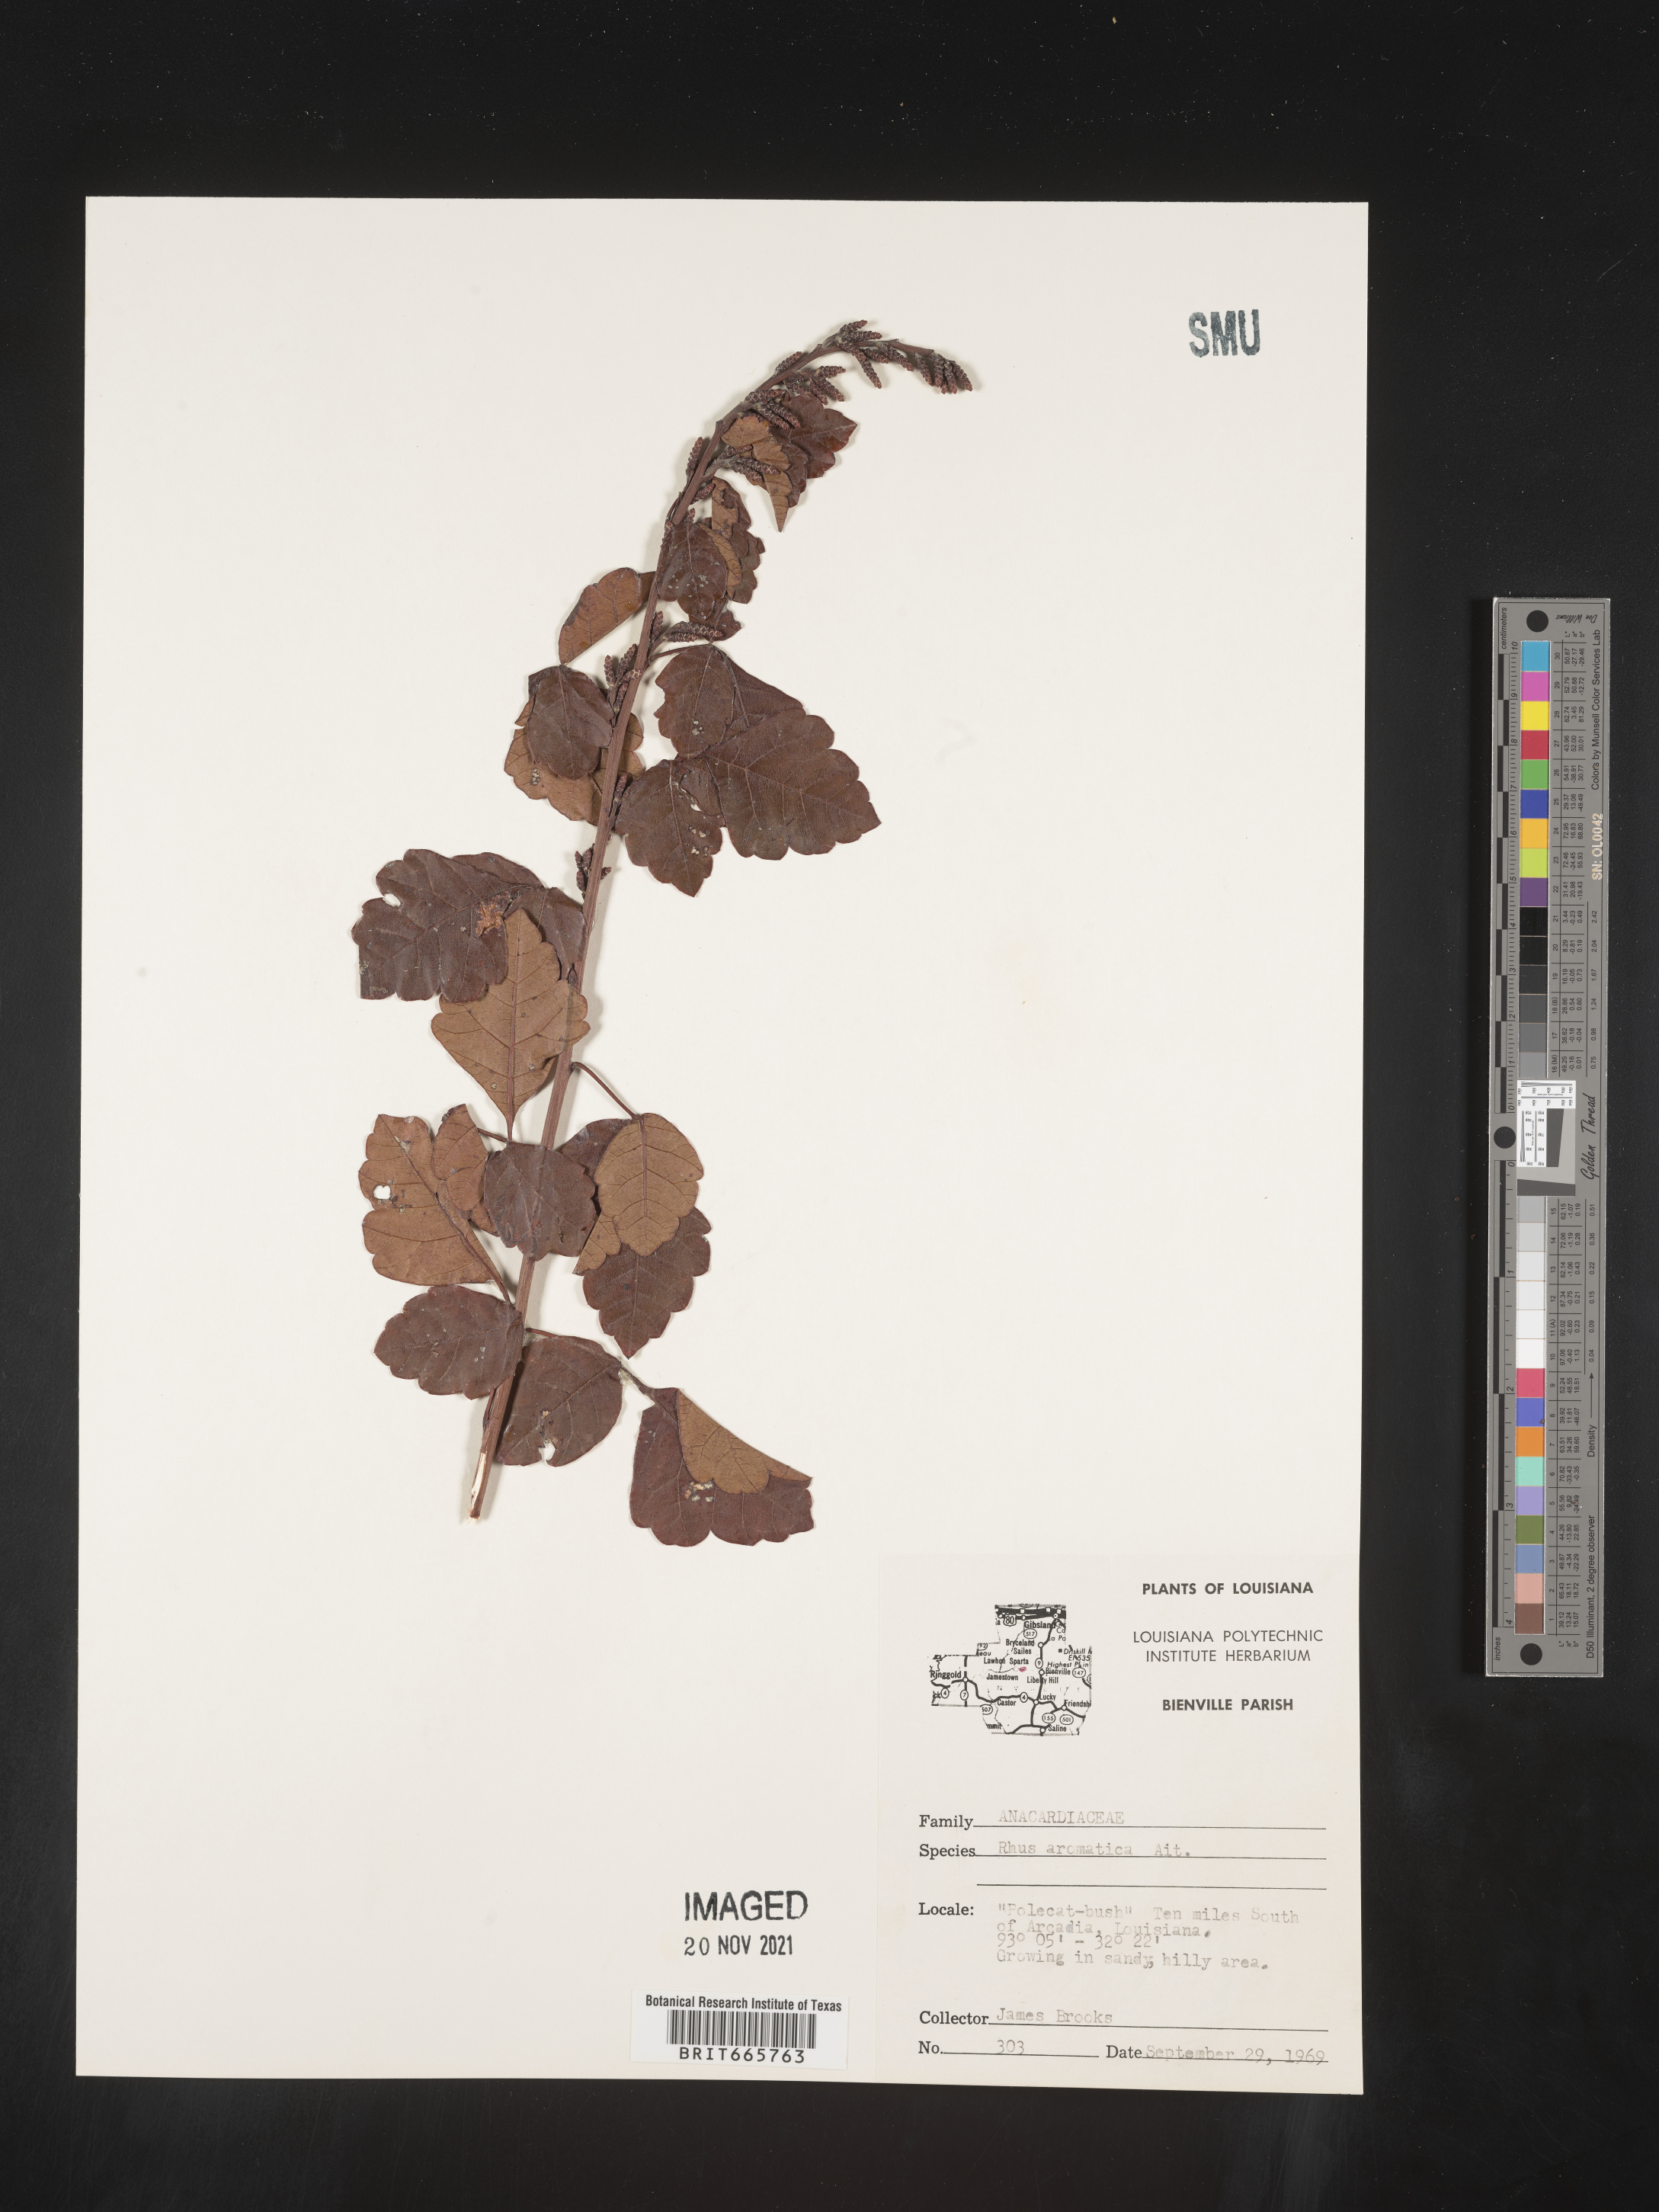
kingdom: Plantae
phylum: Tracheophyta
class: Magnoliopsida
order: Sapindales
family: Anacardiaceae
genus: Rhus
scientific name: Rhus aromatica
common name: Aromatic sumac
